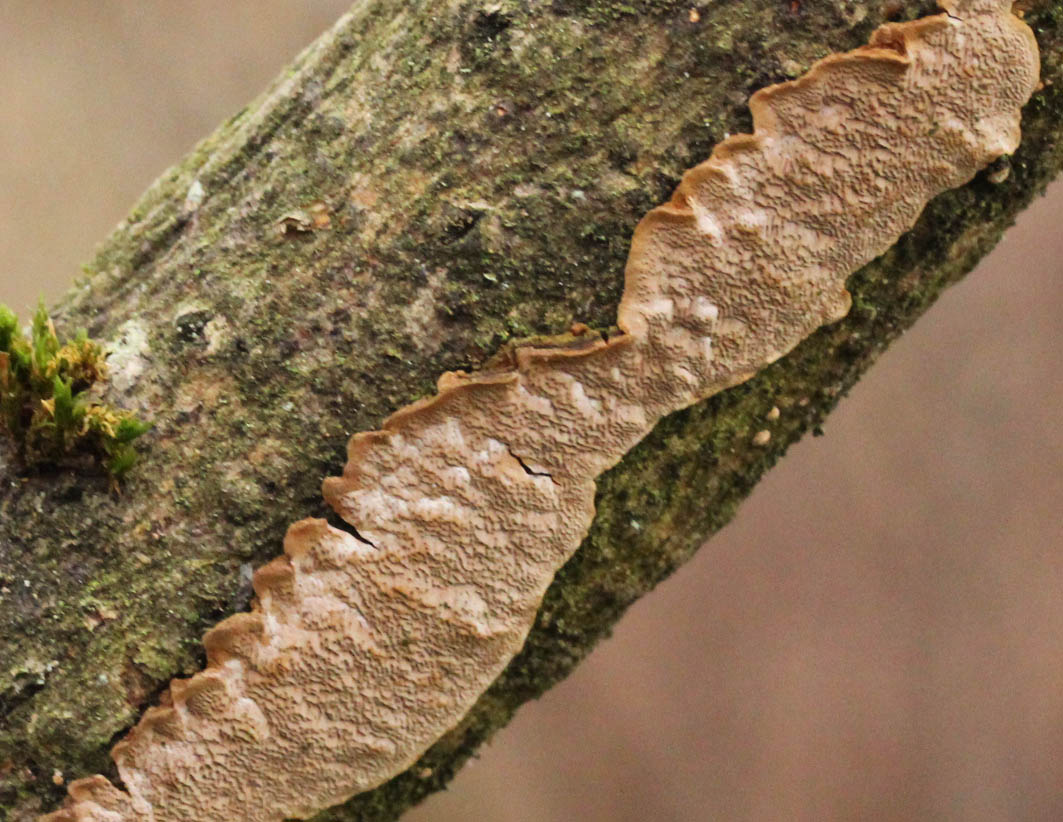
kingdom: Fungi
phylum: Basidiomycota
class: Agaricomycetes
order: Hymenochaetales
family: Hymenochaetaceae
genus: Fuscoporia
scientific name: Fuscoporia ferrea
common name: skorpe-ildporesvamp
